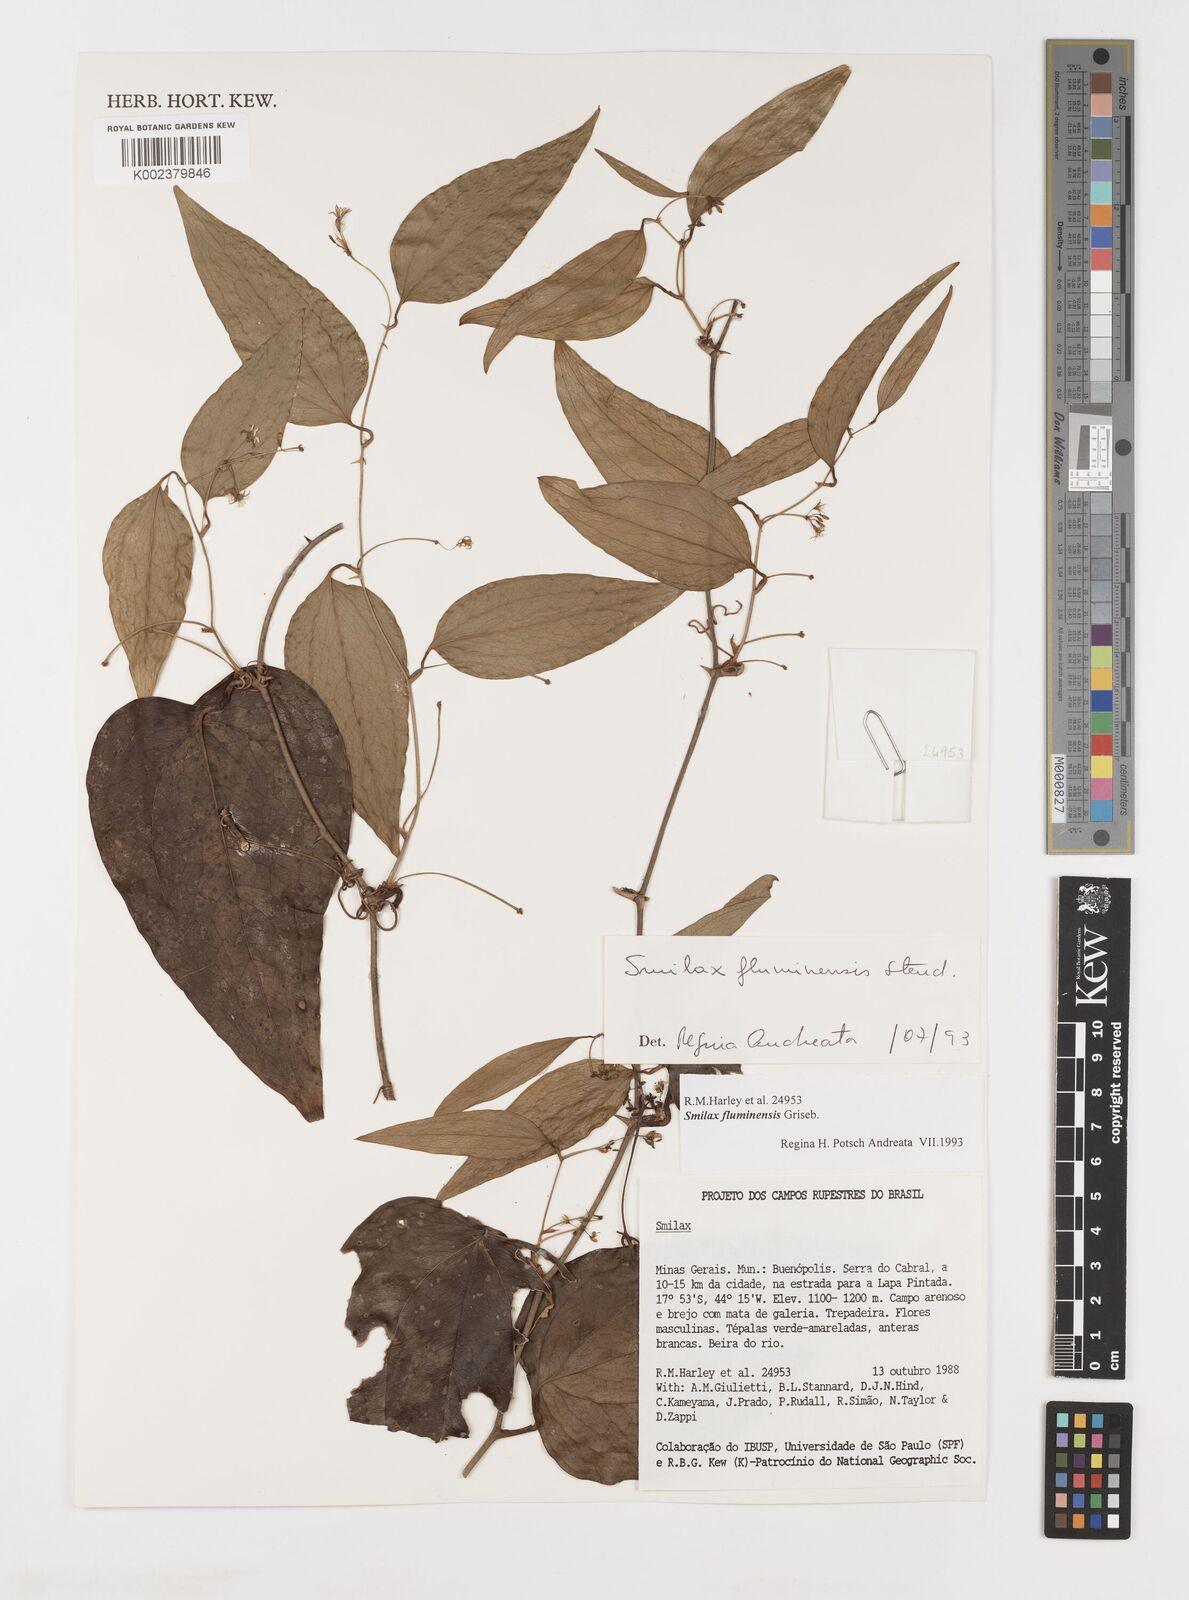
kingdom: Plantae
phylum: Tracheophyta
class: Liliopsida
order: Liliales
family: Smilacaceae
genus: Smilax
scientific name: Smilax fluminensis
